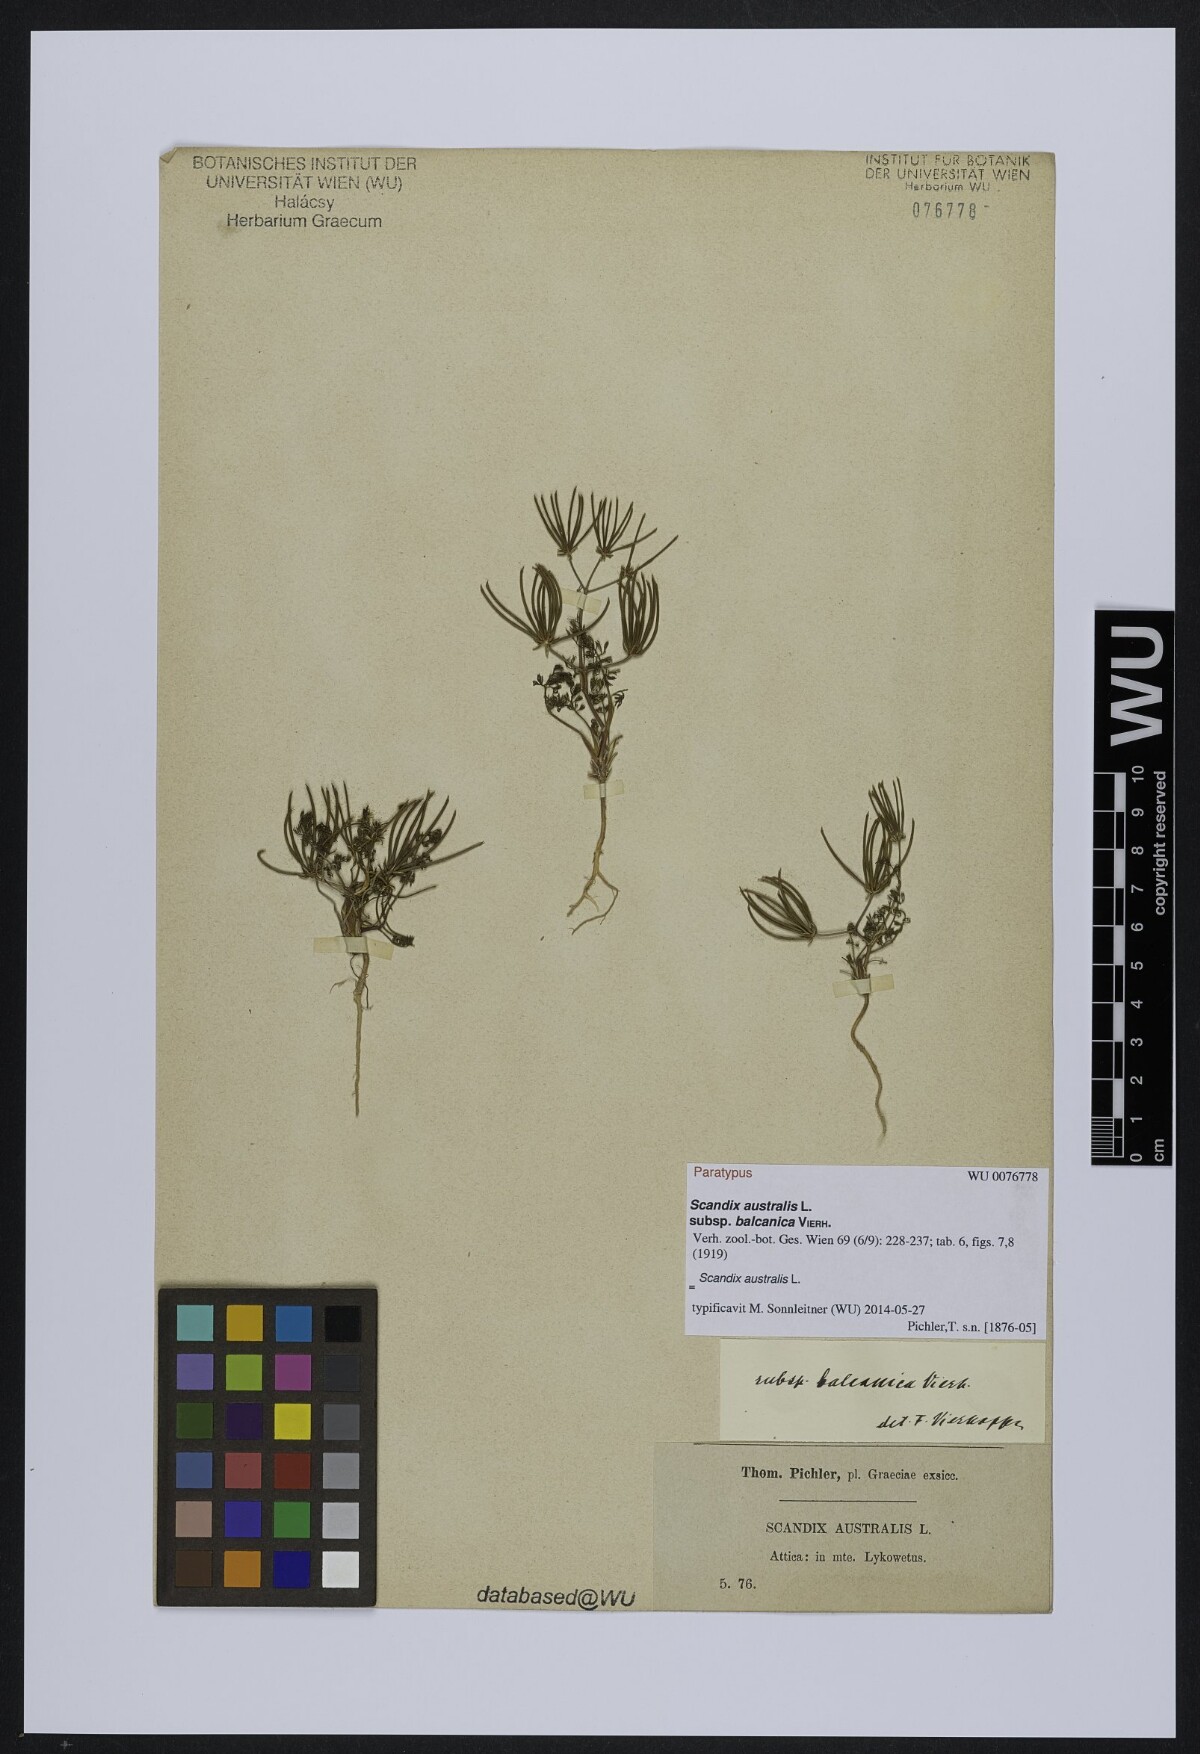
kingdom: Plantae
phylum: Tracheophyta
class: Magnoliopsida
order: Apiales
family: Apiaceae
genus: Scandix
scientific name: Scandix australis
